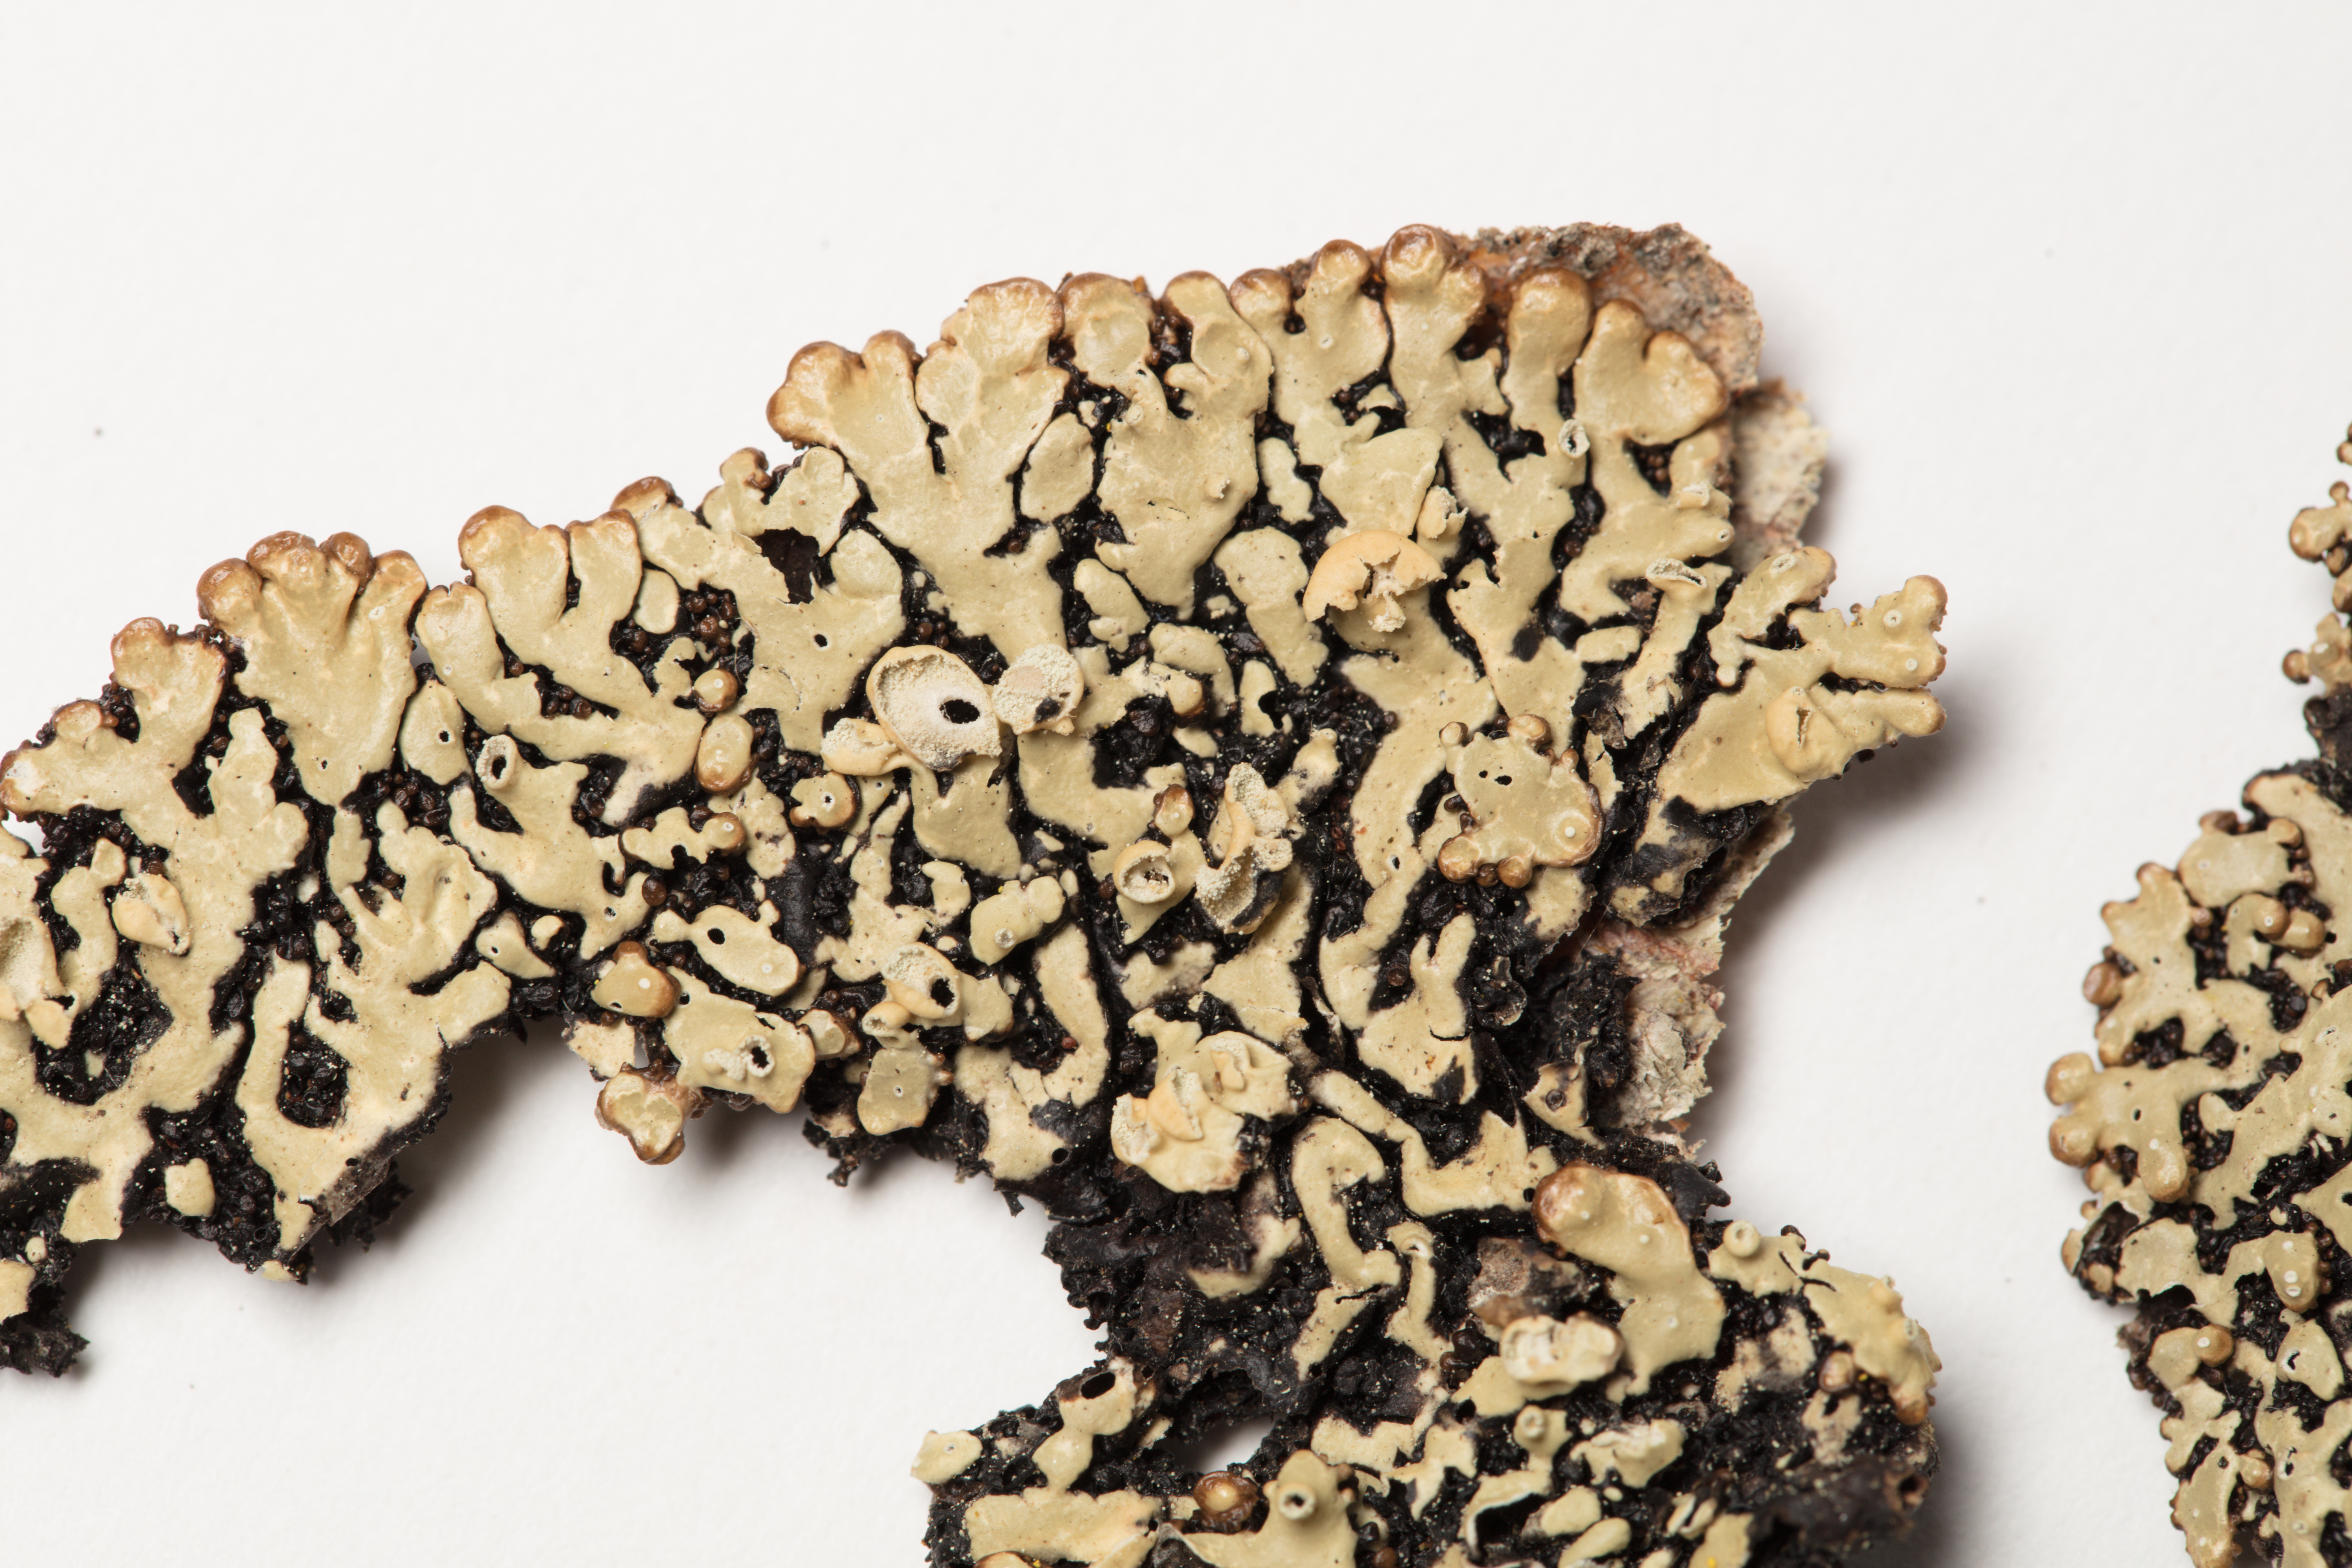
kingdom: Fungi
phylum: Ascomycota
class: Lecanoromycetes
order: Lecanorales
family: Parmeliaceae
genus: Menegazzia
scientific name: Menegazzia globulifera
